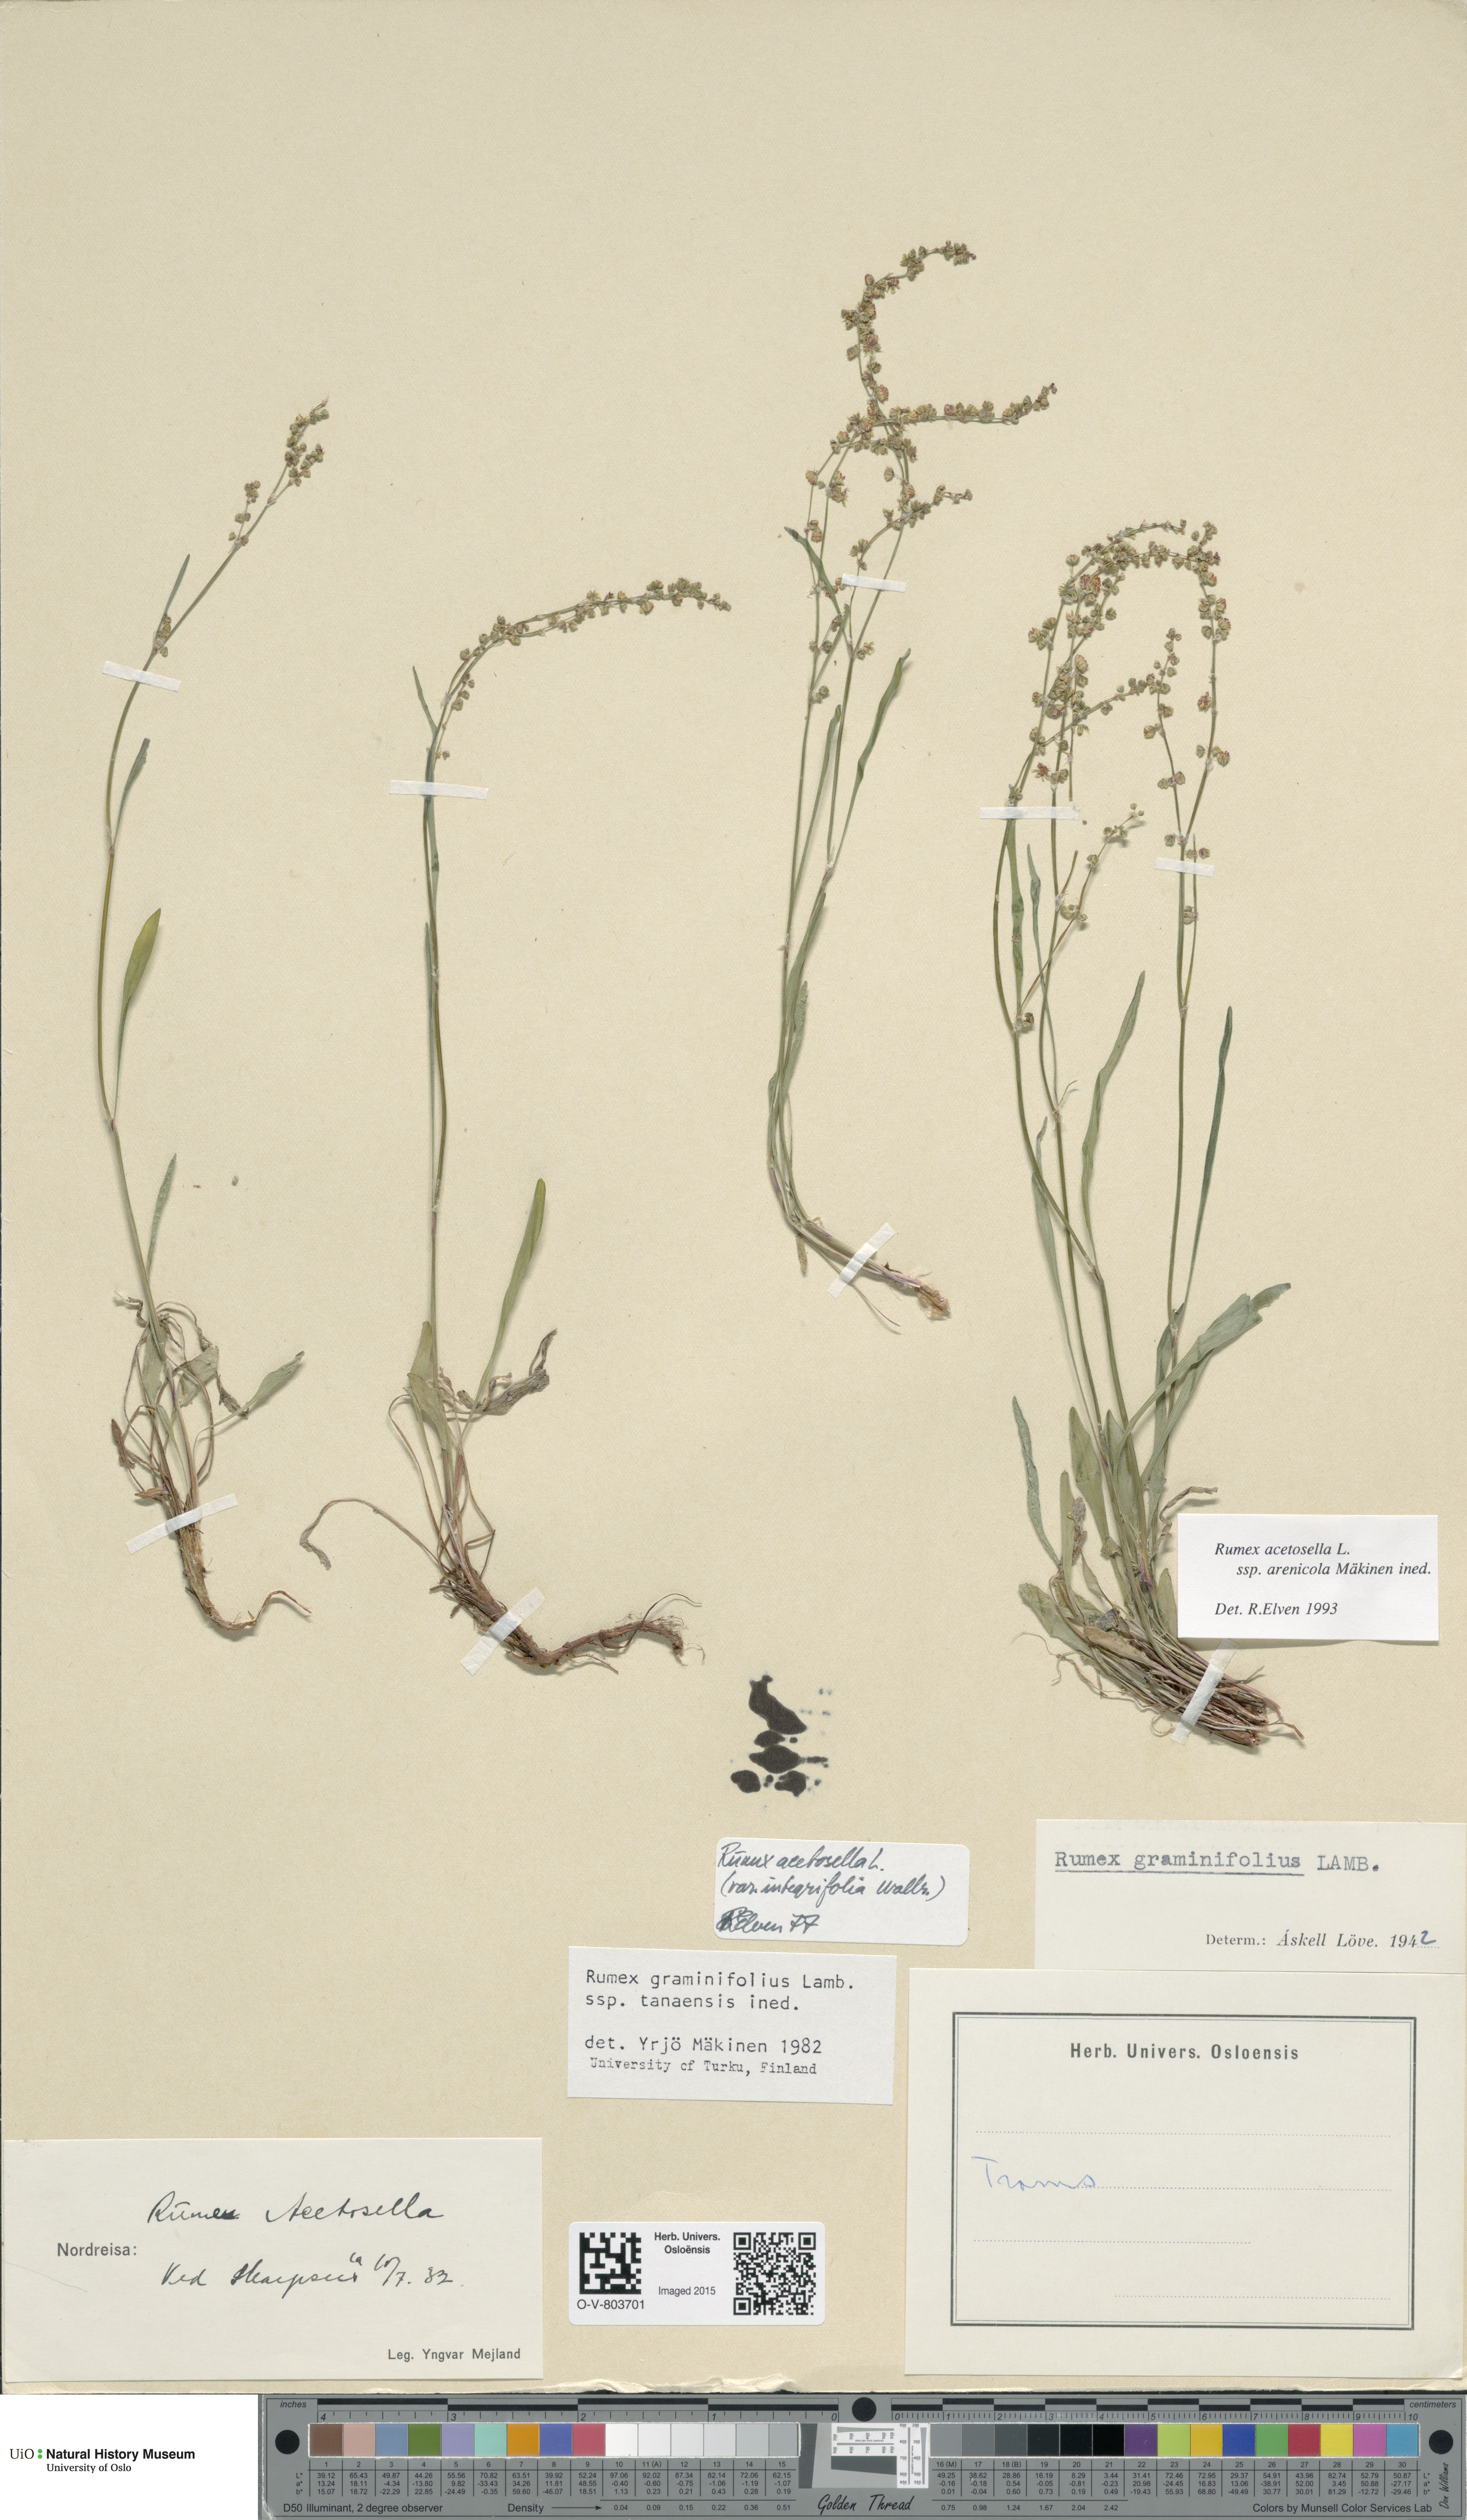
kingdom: Plantae
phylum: Tracheophyta
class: Magnoliopsida
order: Caryophyllales
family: Polygonaceae
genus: Rumex
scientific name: Rumex acetosella
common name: Common sheep sorrel
